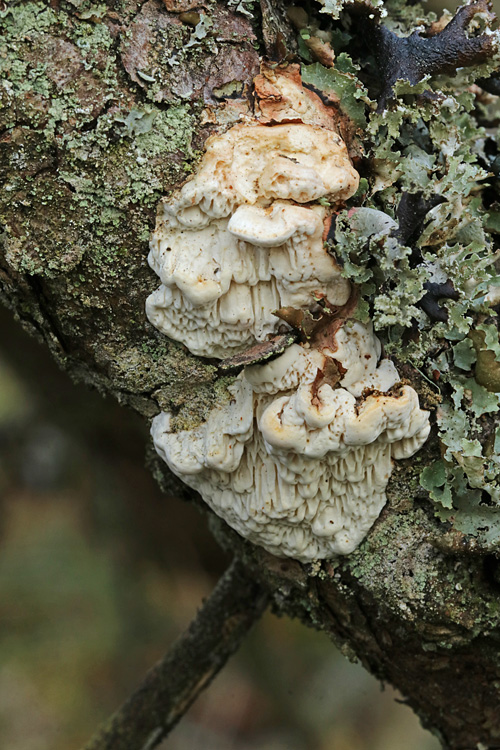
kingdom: Fungi
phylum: Basidiomycota
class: Agaricomycetes
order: Polyporales
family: Fomitopsidaceae
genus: Fomitopsis
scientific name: Fomitopsis
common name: fyrre-skiveporesvamp
